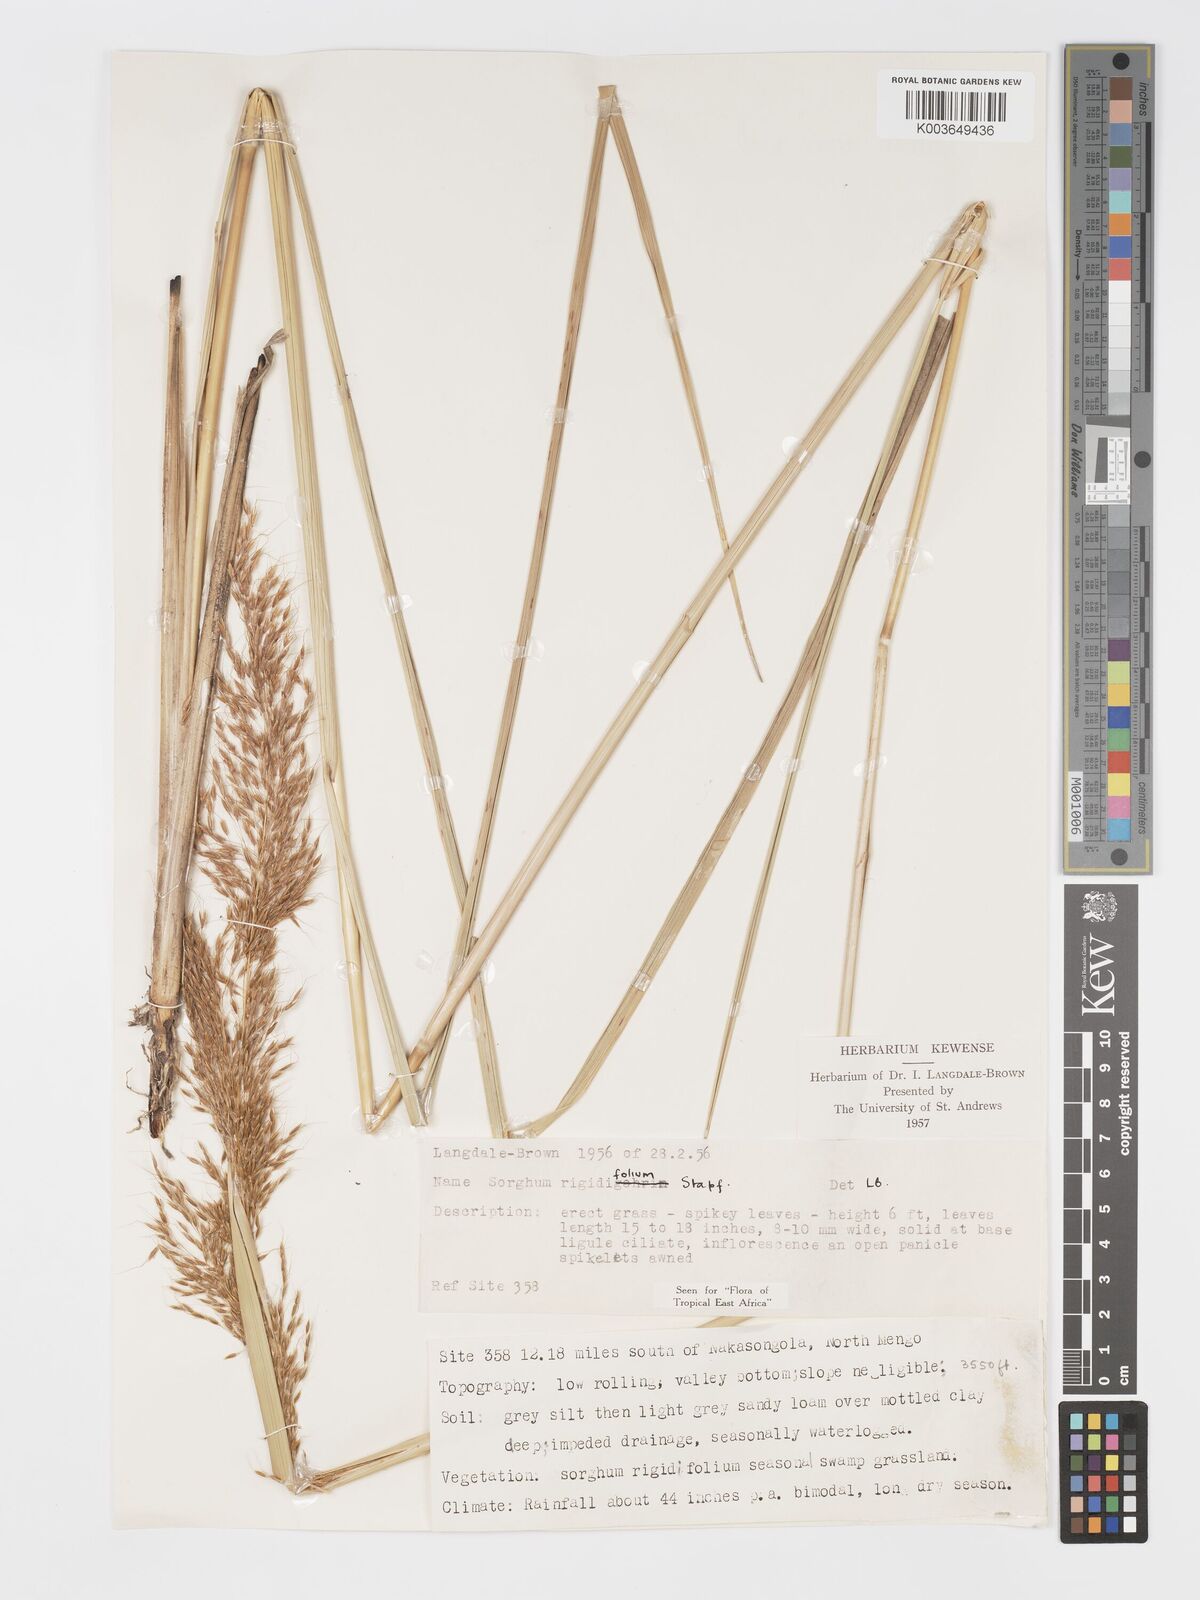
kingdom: Plantae
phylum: Tracheophyta
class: Liliopsida
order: Poales
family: Poaceae
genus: Sorghastrum
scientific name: Sorghastrum stipoides
